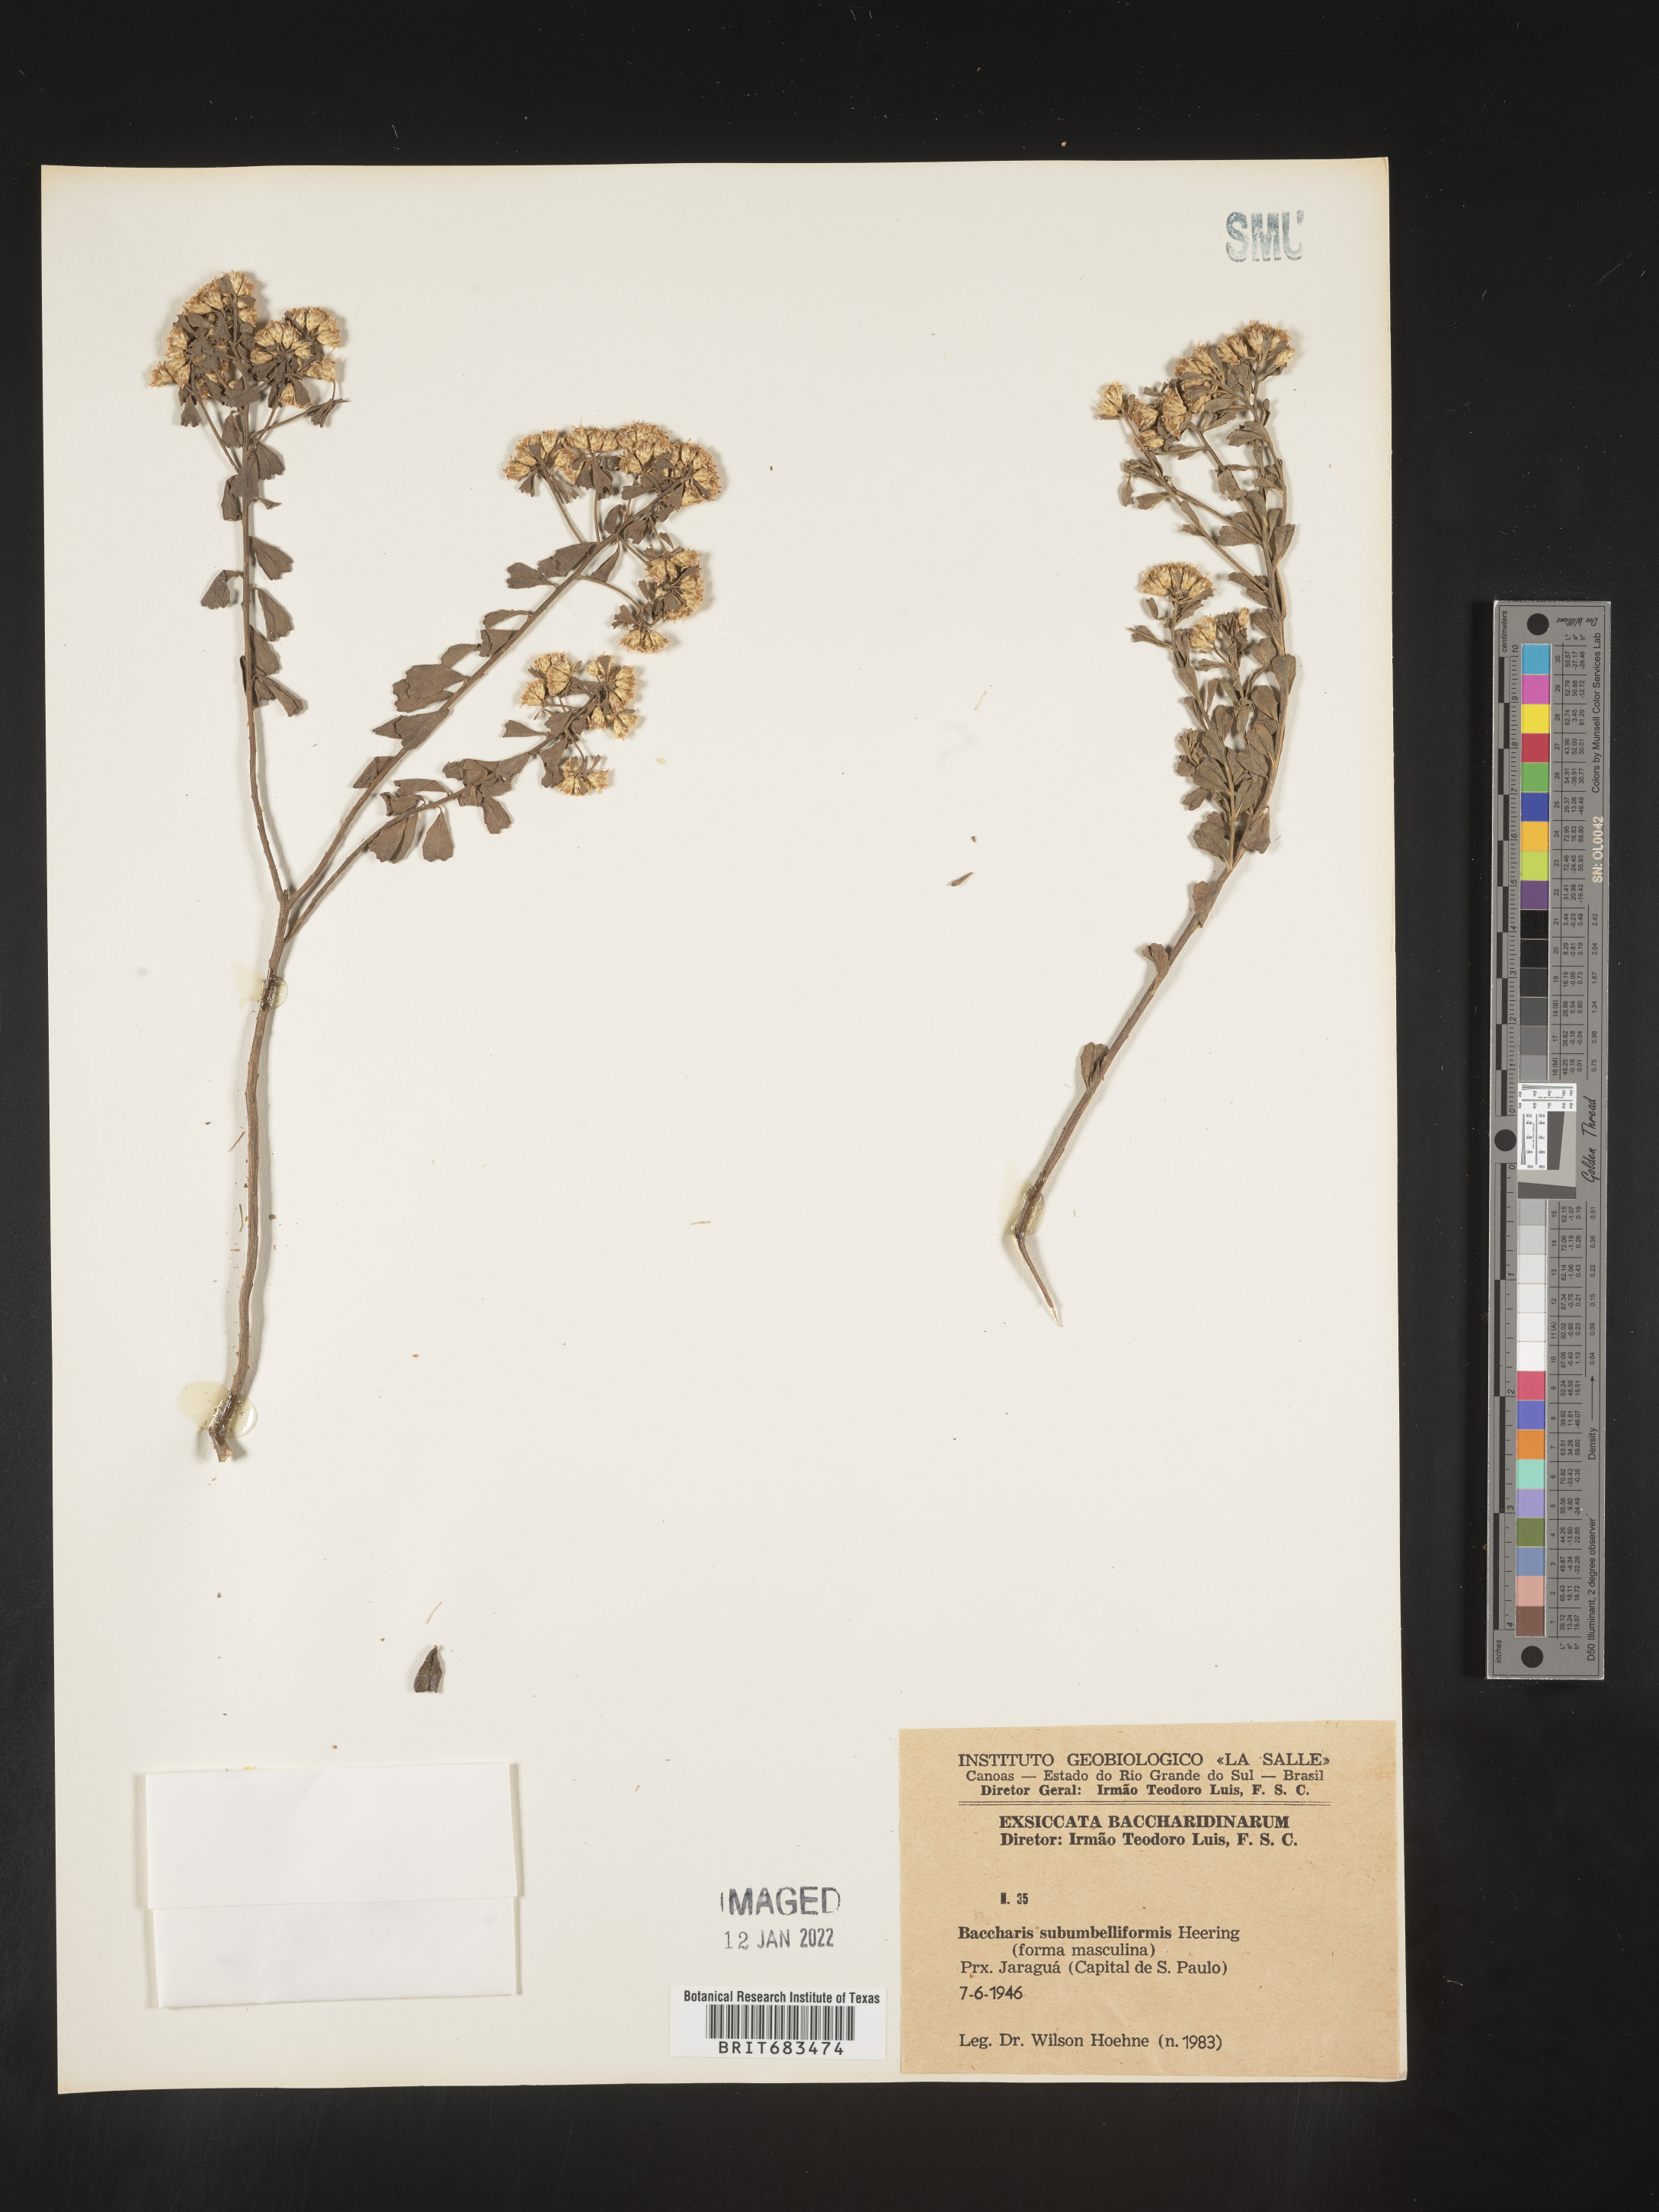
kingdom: Plantae
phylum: Tracheophyta
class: Magnoliopsida
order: Asterales
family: Asteraceae
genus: Baccharis
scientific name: Baccharis
